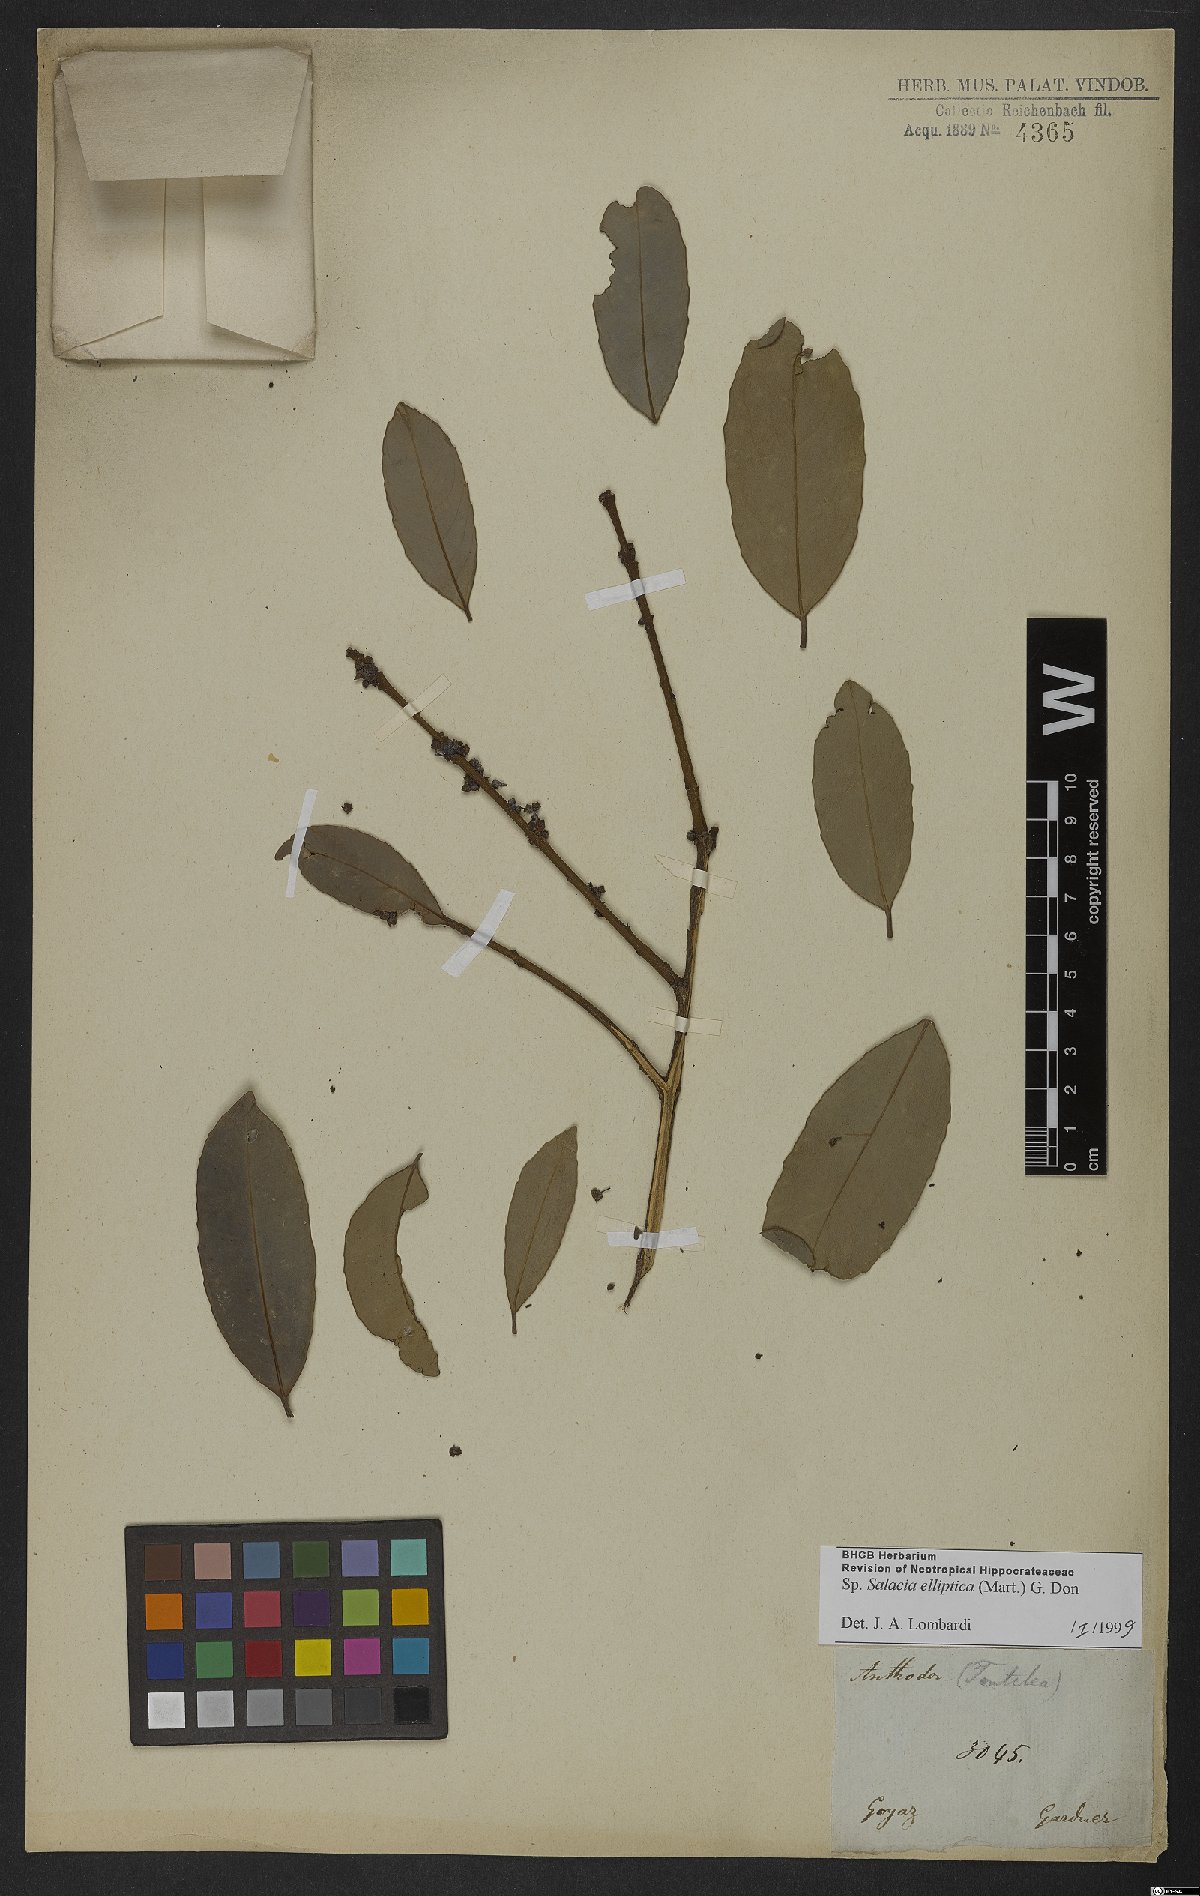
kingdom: Plantae
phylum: Tracheophyta
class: Magnoliopsida
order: Celastrales
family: Celastraceae
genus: Salacia
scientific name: Salacia elliptica
